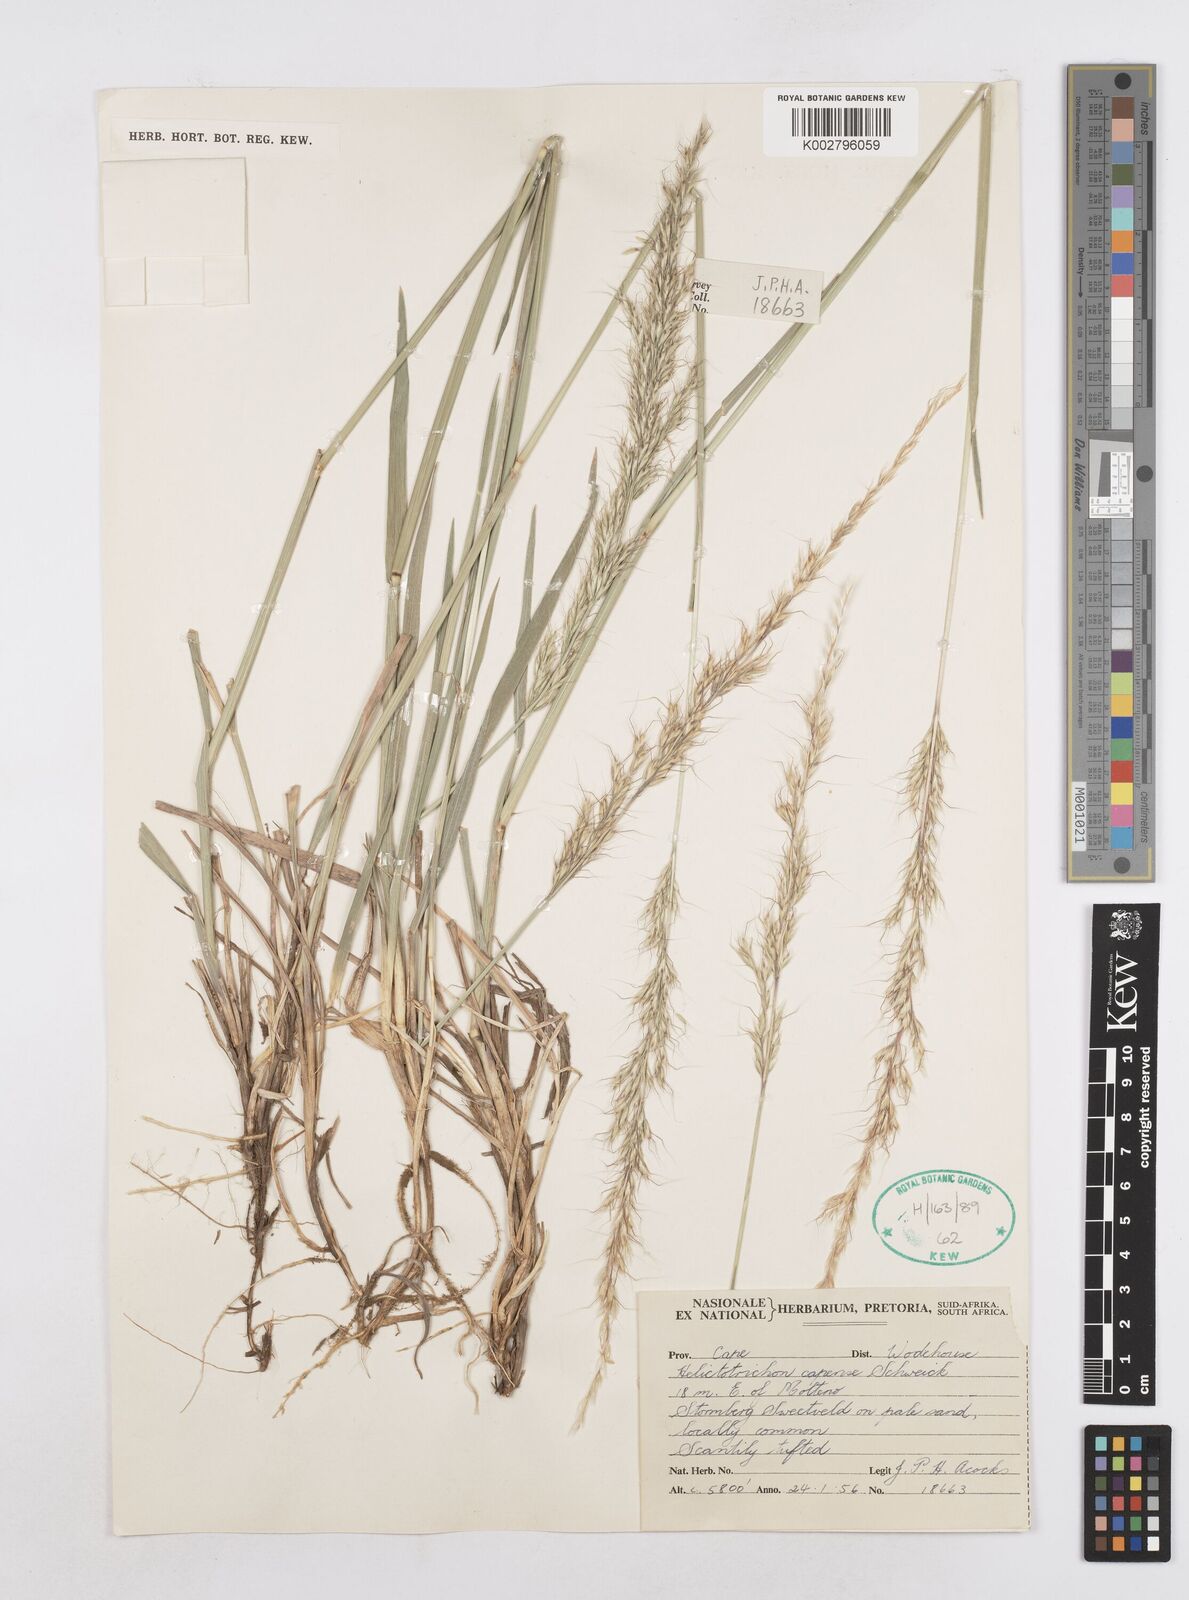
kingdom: Plantae
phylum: Tracheophyta
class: Liliopsida
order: Poales
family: Poaceae
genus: Trisetopsis
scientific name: Trisetopsis capensis
